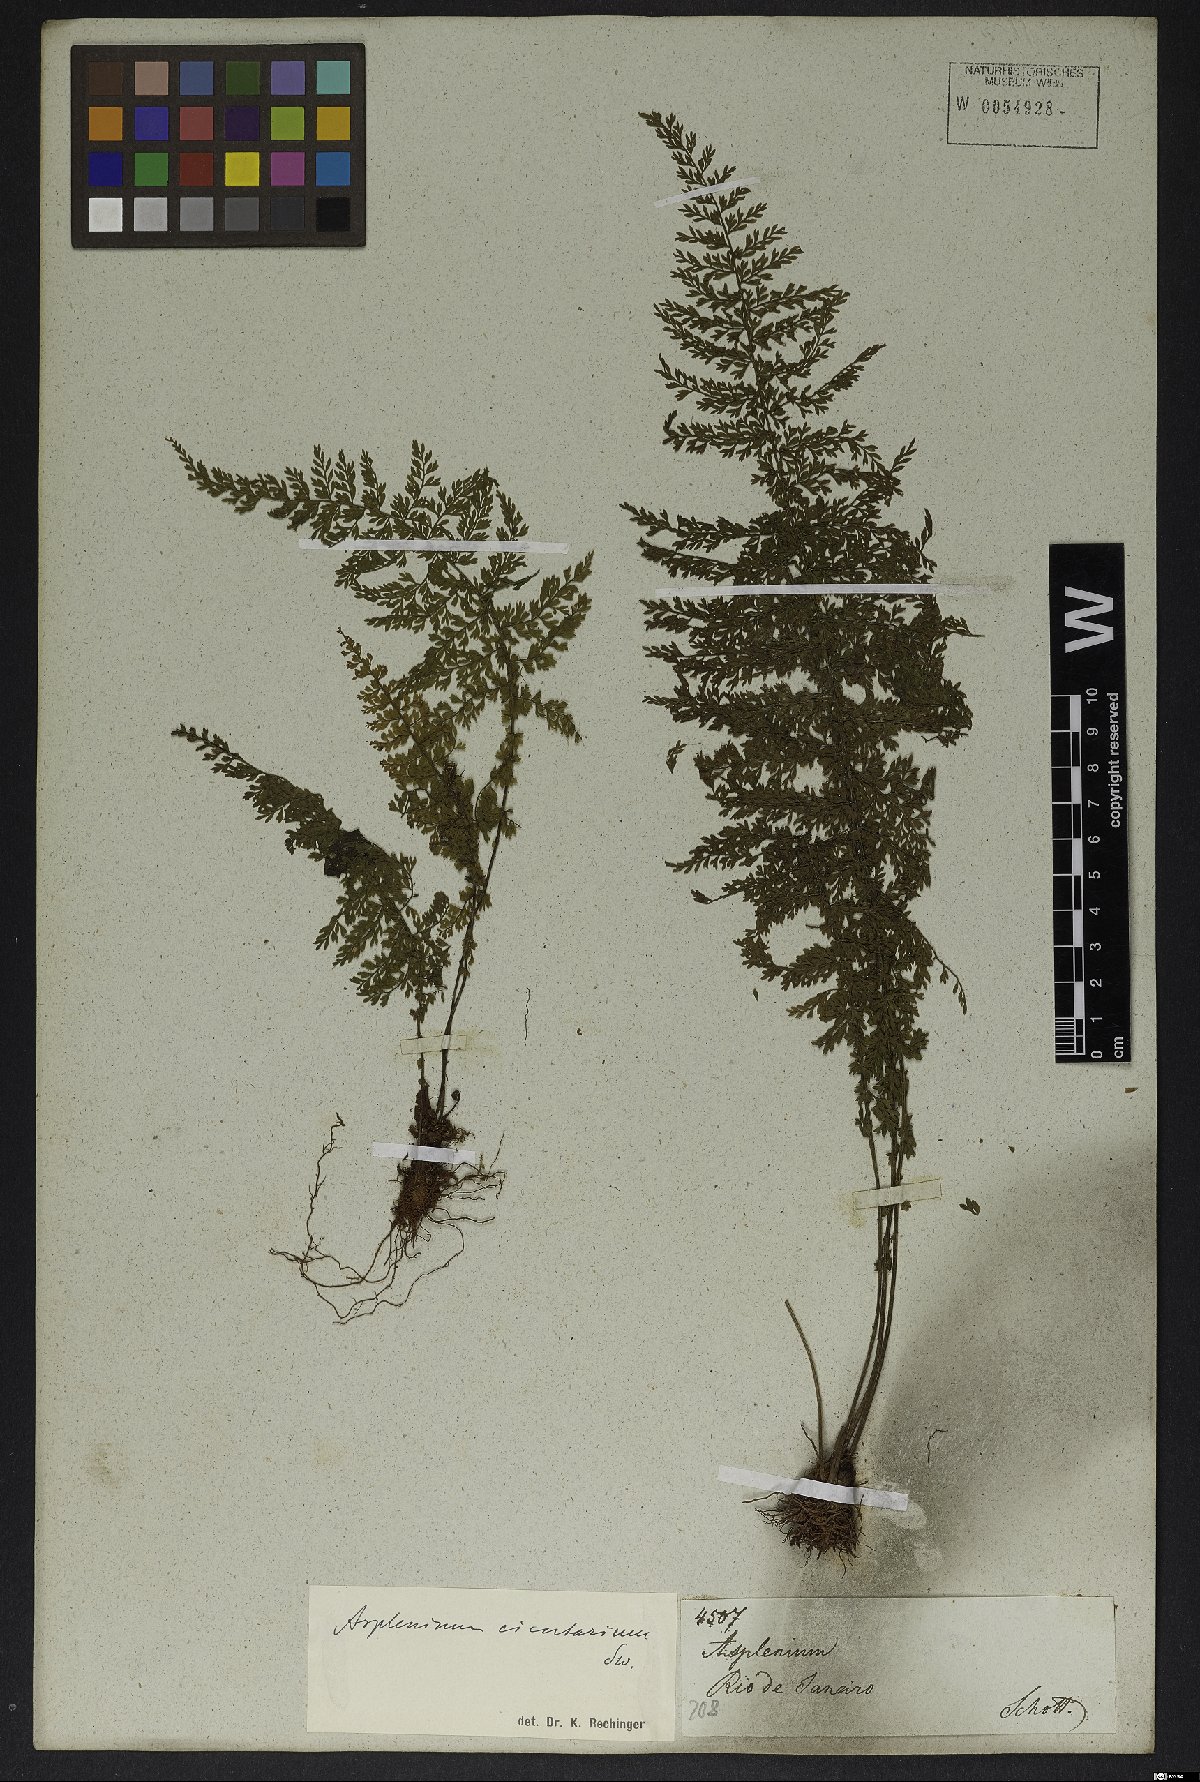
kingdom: Plantae
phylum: Tracheophyta
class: Polypodiopsida
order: Polypodiales
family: Aspleniaceae
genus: Asplenium
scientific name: Asplenium cristatum
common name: Parsley spleenwort
